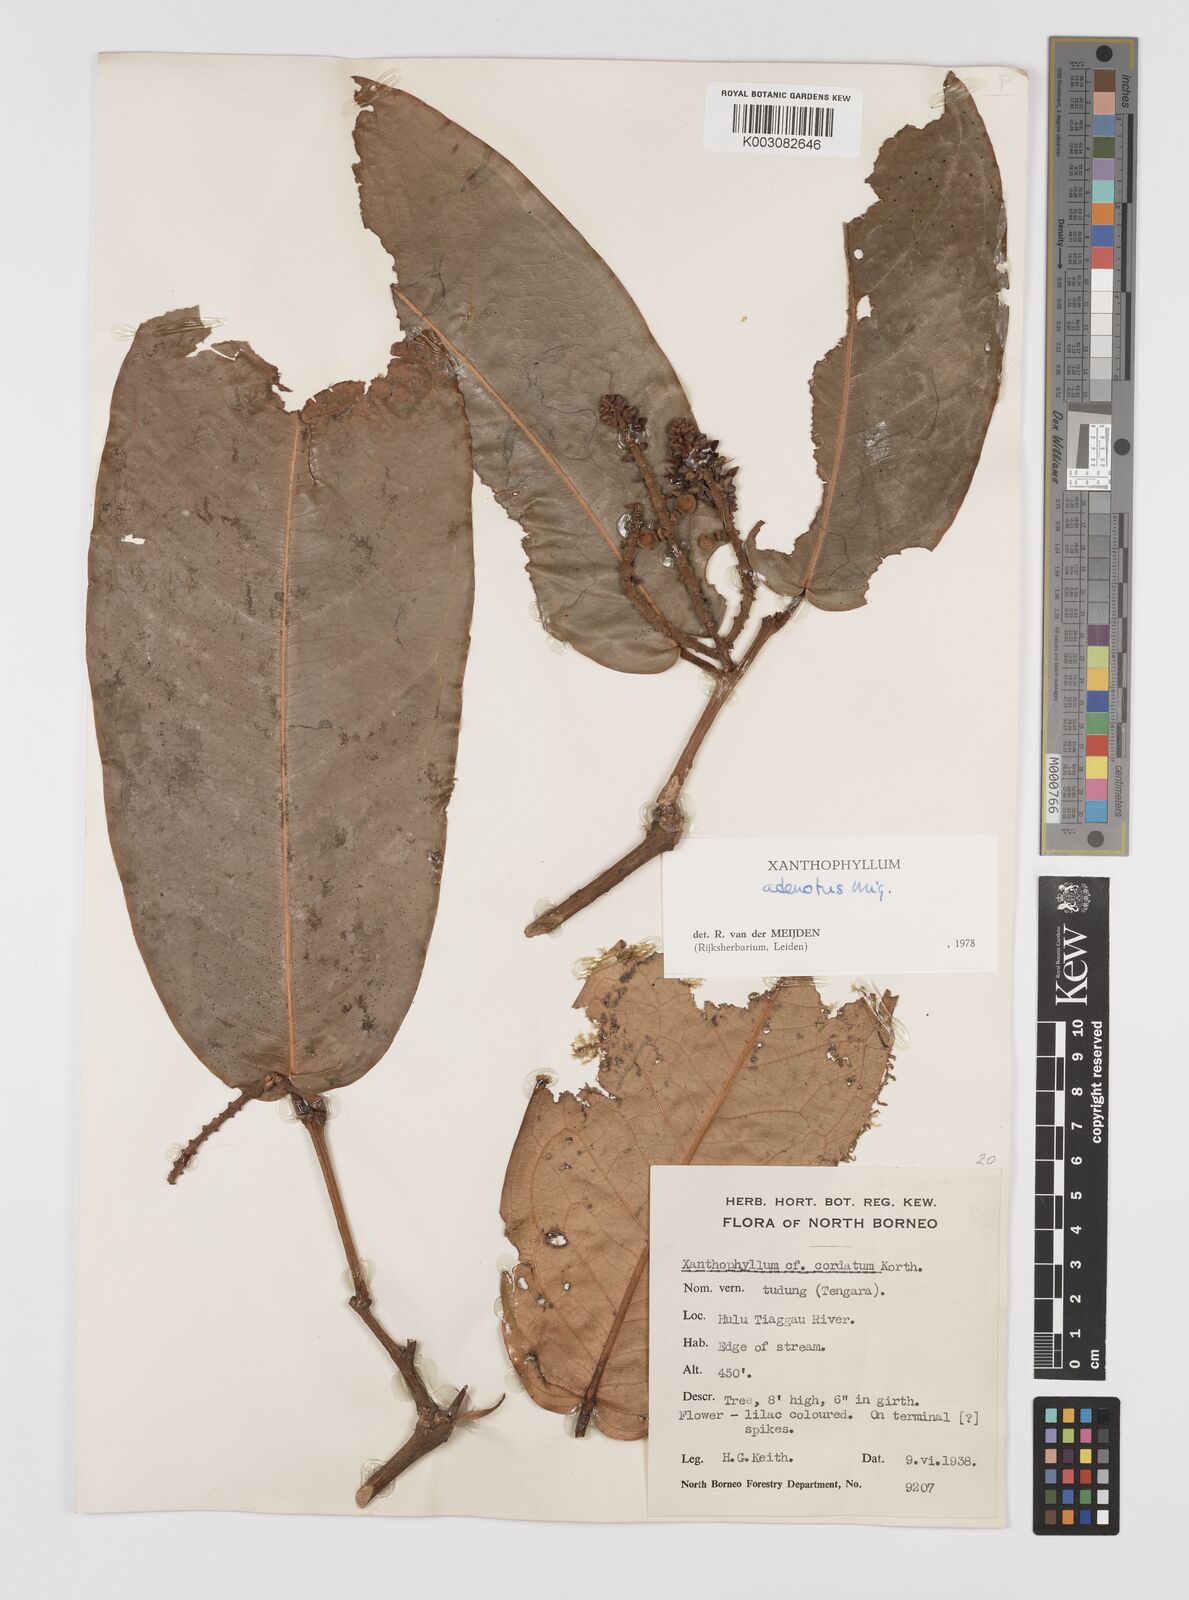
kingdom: Plantae
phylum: Tracheophyta
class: Magnoliopsida
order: Fabales
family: Polygalaceae
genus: Xanthophyllum
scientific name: Xanthophyllum adenotus
